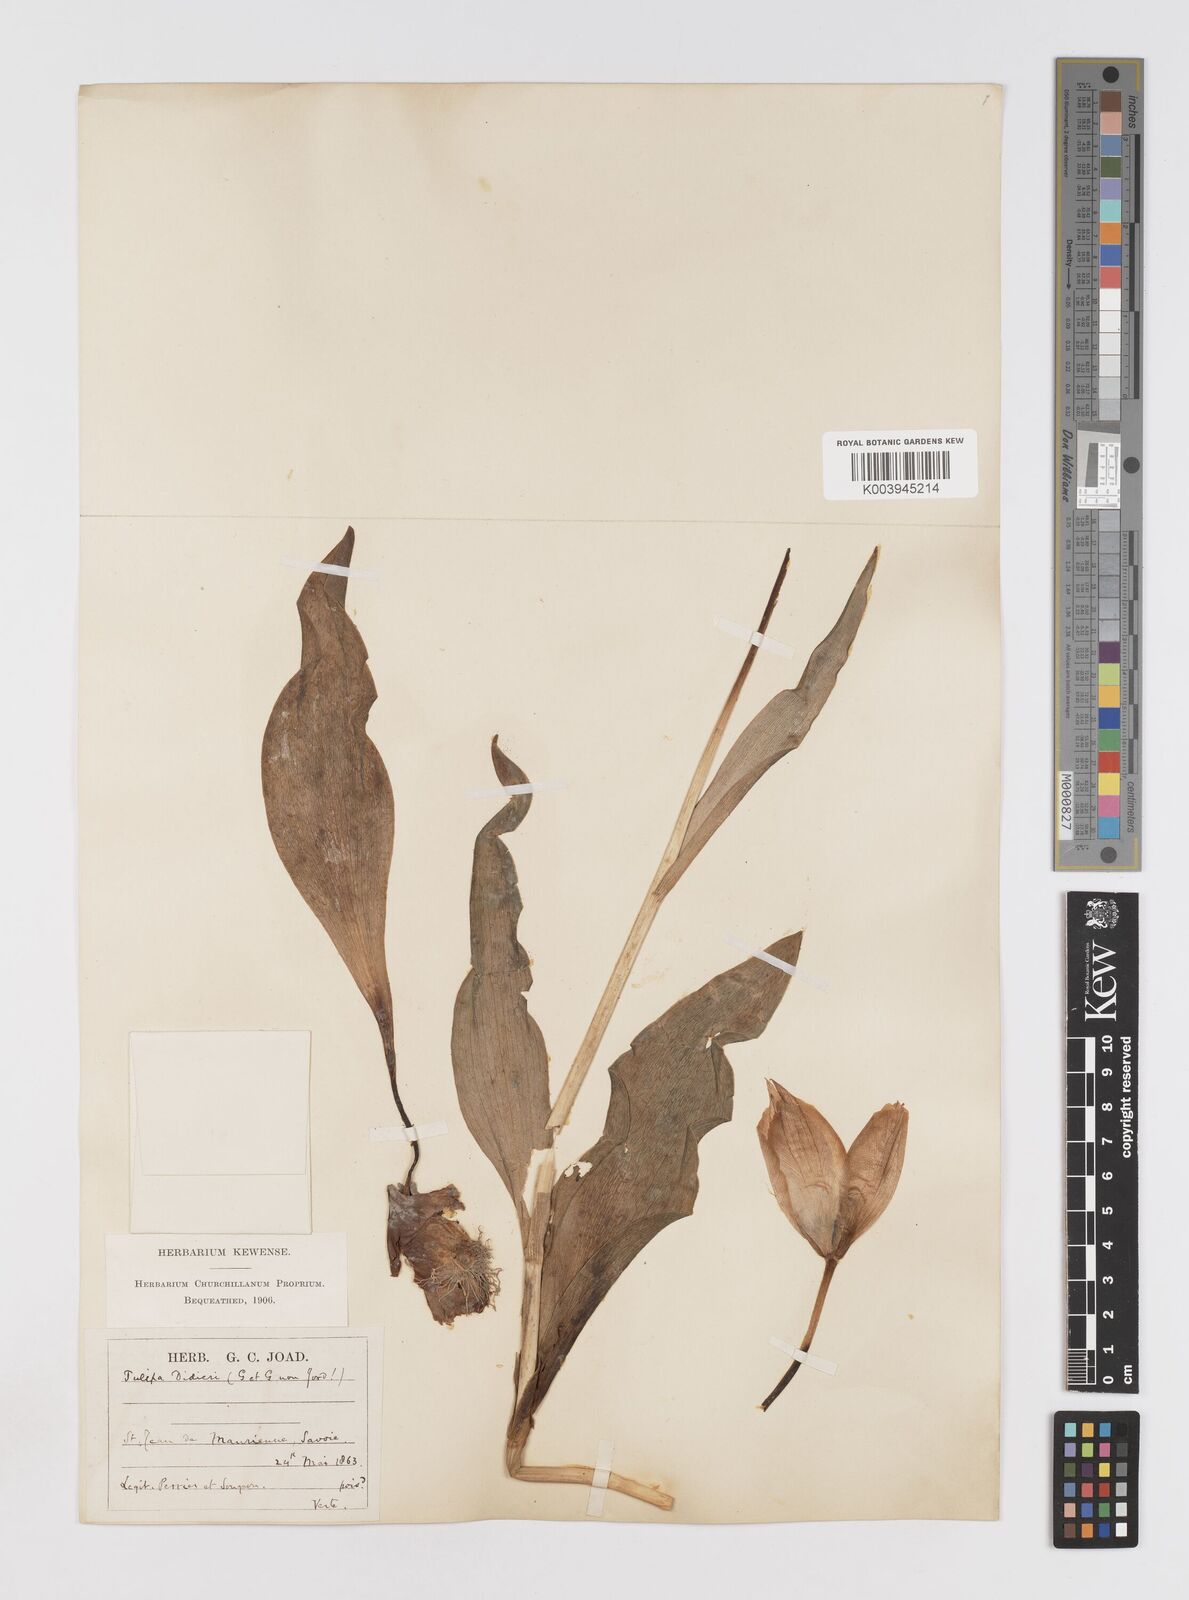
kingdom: Plantae
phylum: Tracheophyta
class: Liliopsida
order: Liliales
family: Liliaceae
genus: Tulipa
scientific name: Tulipa gesneriana
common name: Garden tulip
